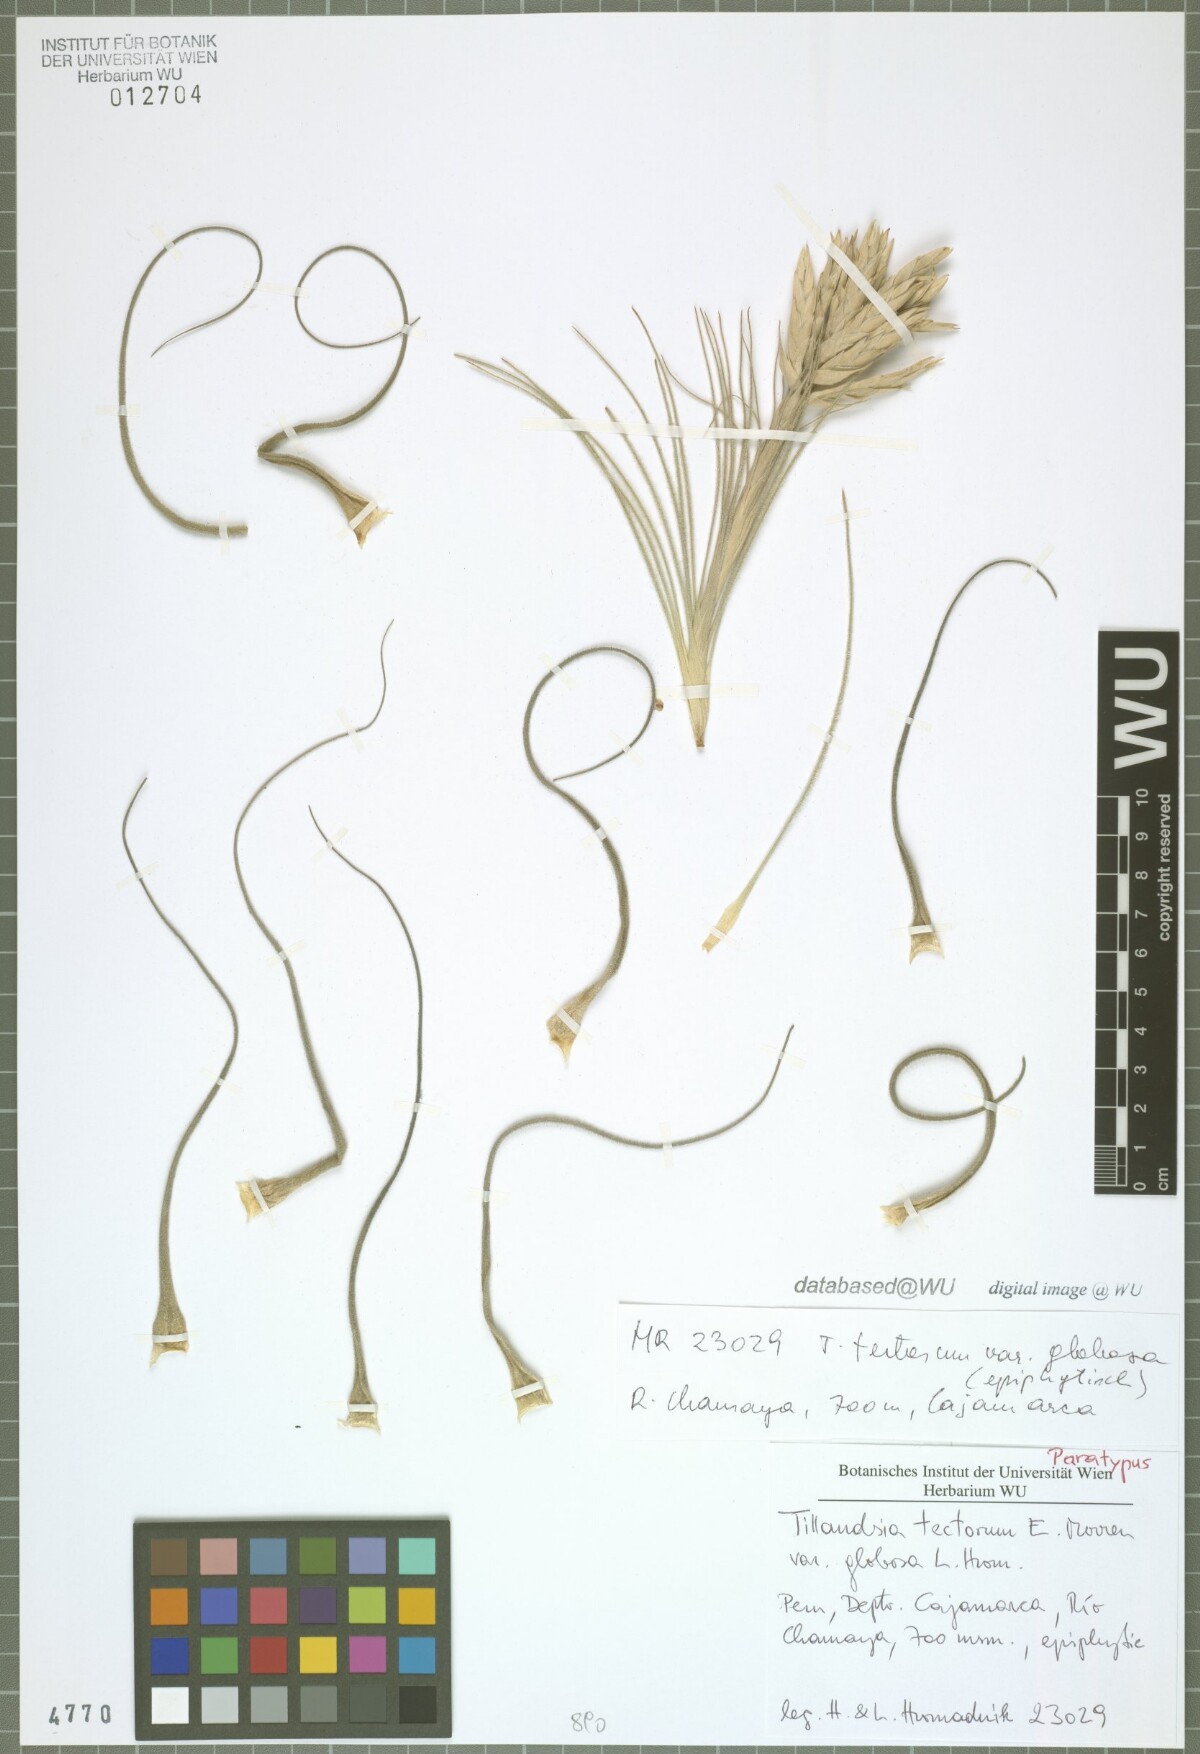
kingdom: Plantae
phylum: Tracheophyta
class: Liliopsida
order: Poales
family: Bromeliaceae
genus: Tillandsia
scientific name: Tillandsia tectorum
